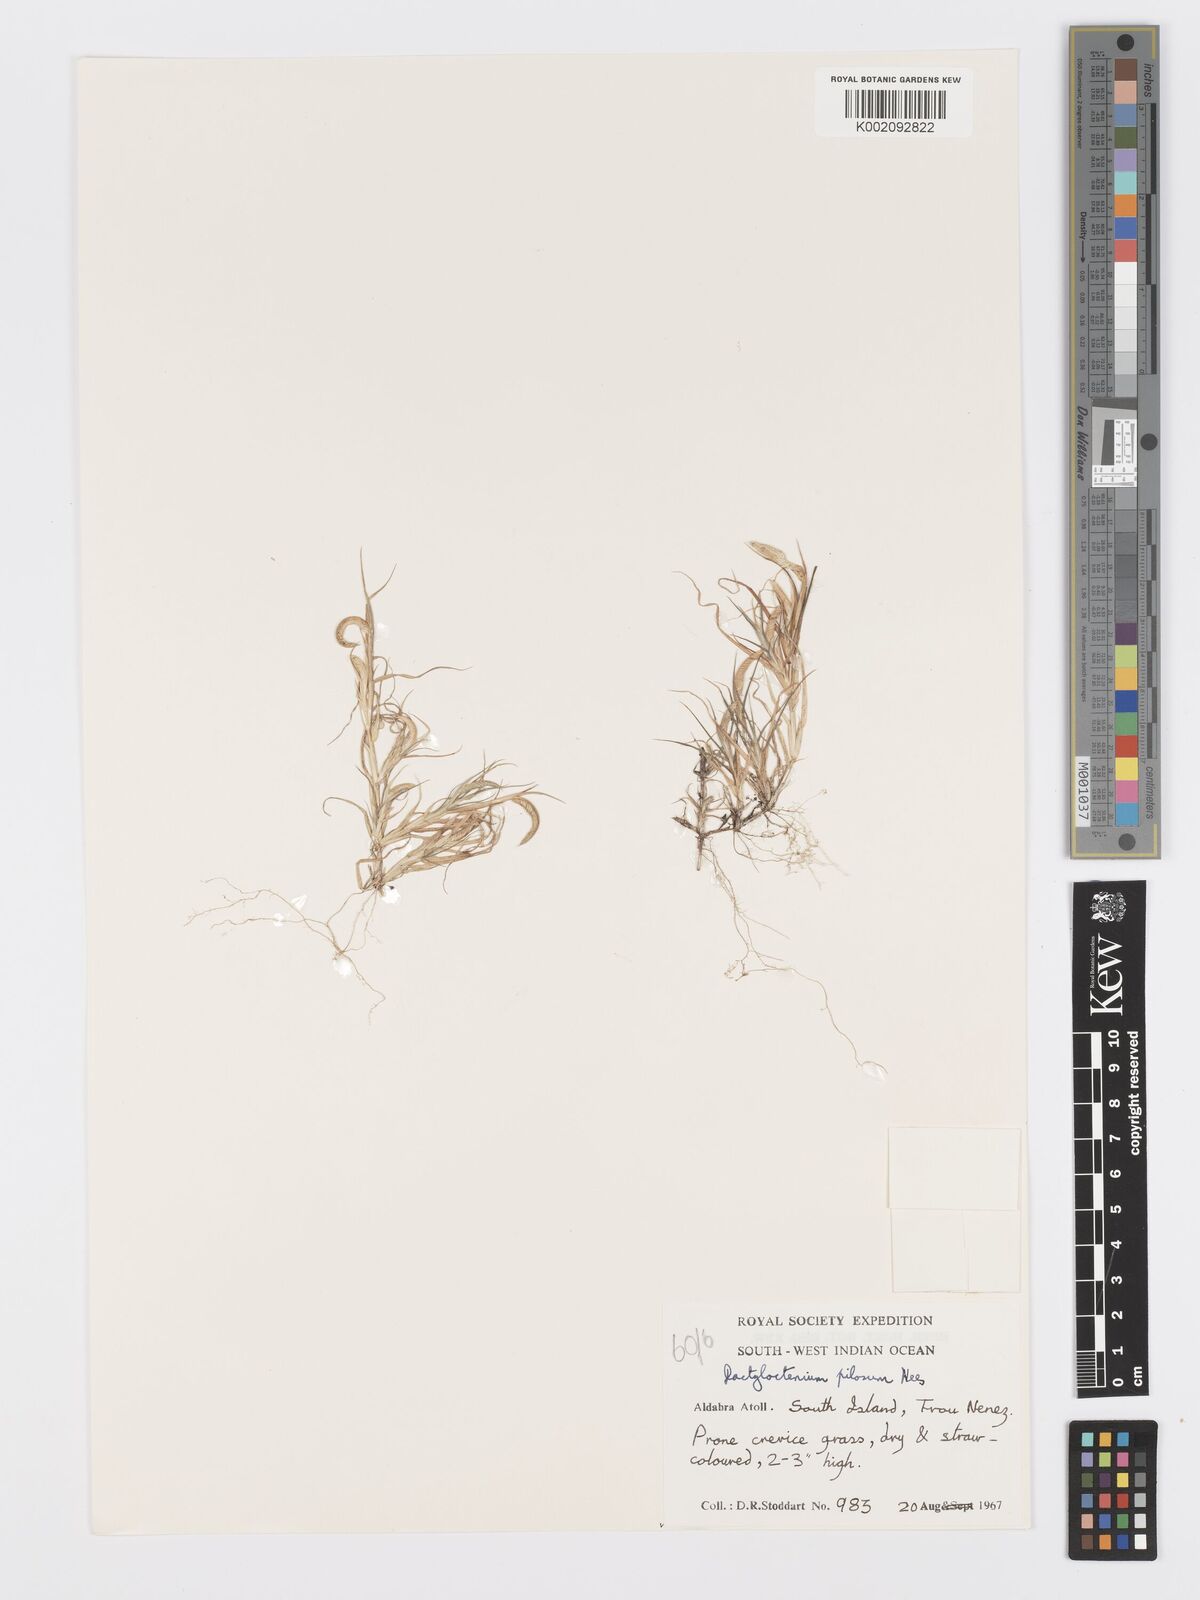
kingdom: Plantae
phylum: Tracheophyta
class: Liliopsida
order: Poales
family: Poaceae
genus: Dactyloctenium
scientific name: Dactyloctenium pilosum
